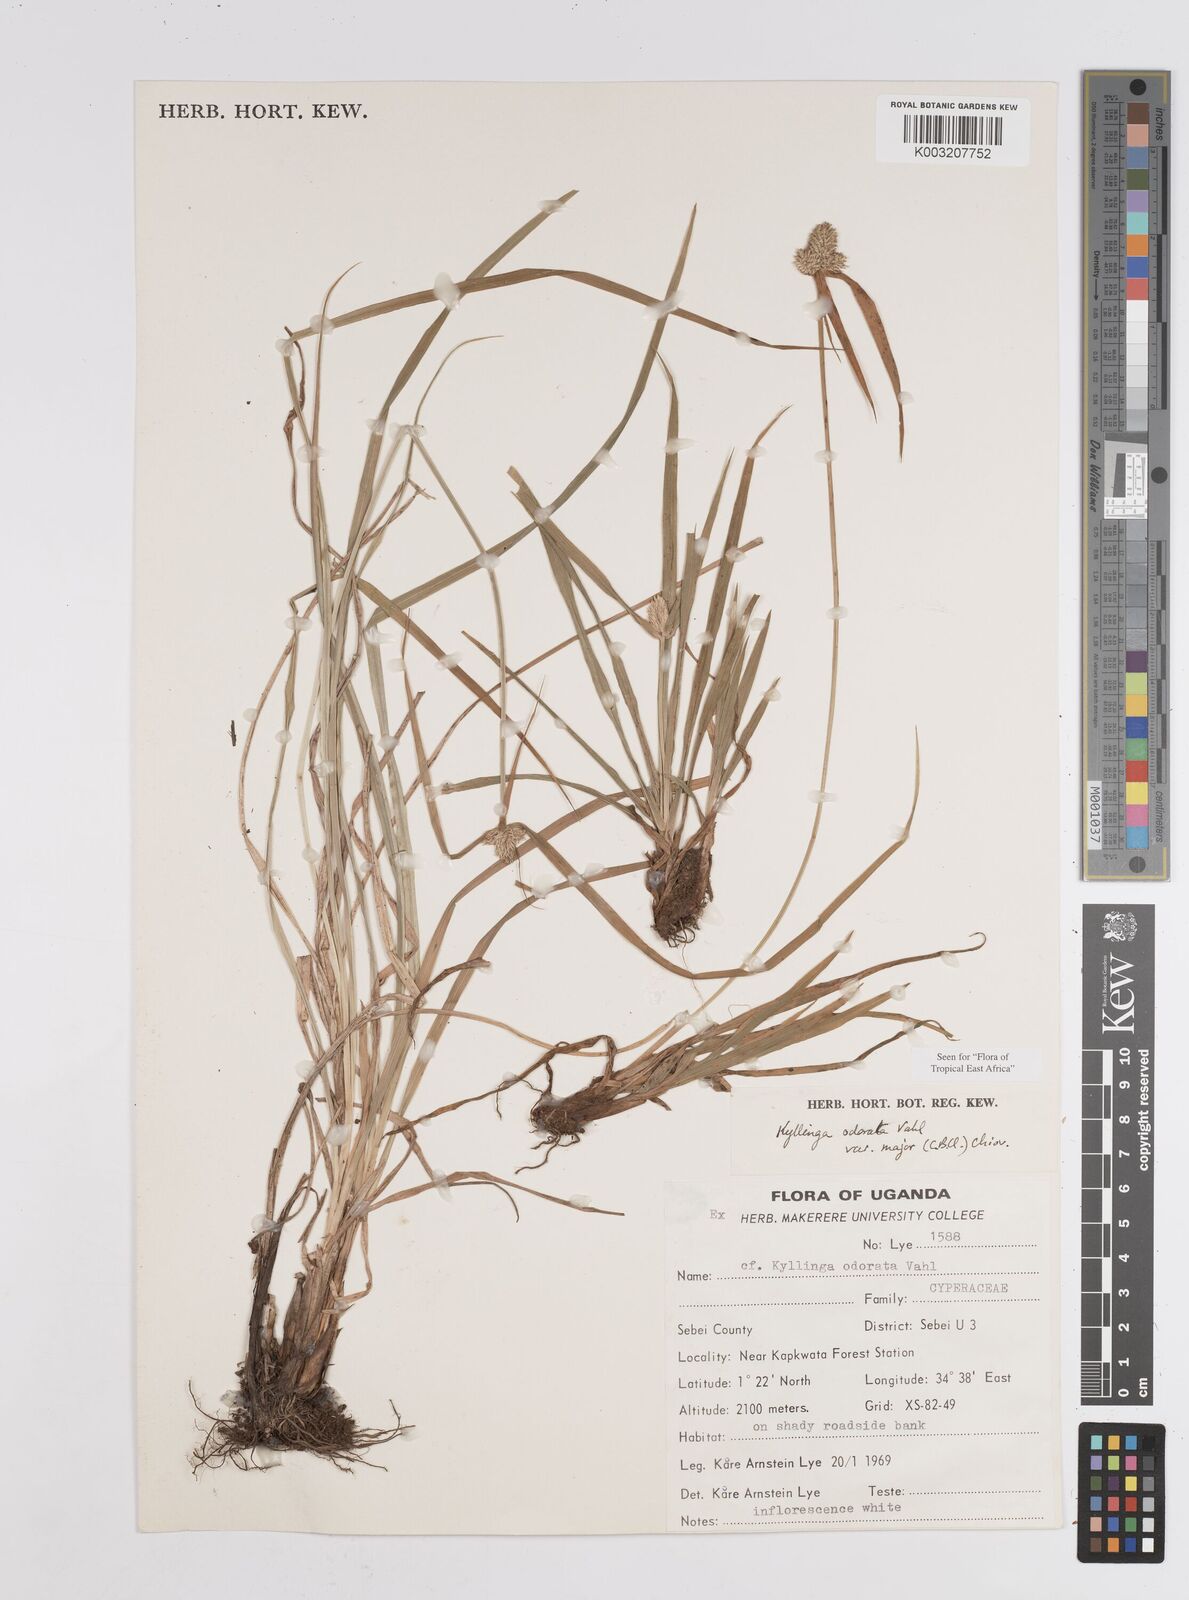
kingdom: Plantae
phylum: Tracheophyta
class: Liliopsida
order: Poales
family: Cyperaceae
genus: Cyperus
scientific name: Cyperus
